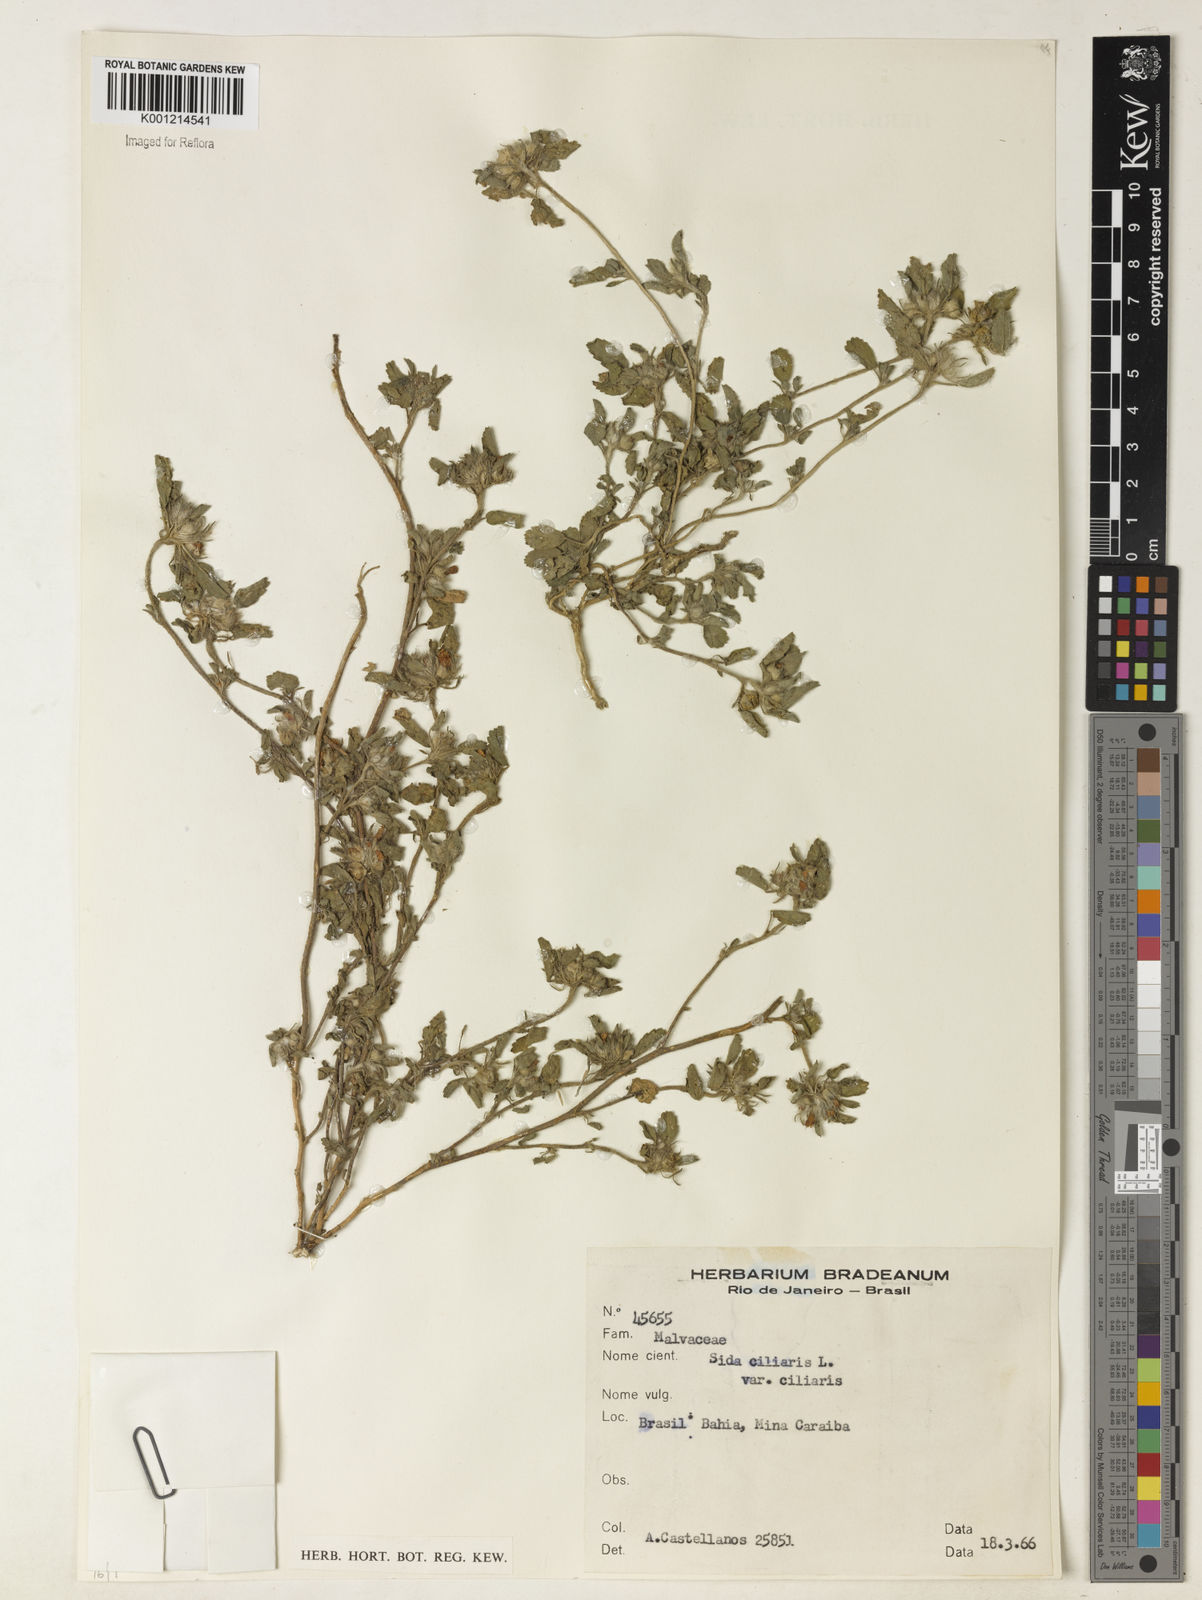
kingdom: Plantae
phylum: Tracheophyta
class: Magnoliopsida
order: Malvales
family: Malvaceae
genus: Sida
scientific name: Sida ciliaris
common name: Bracted fanpetals
